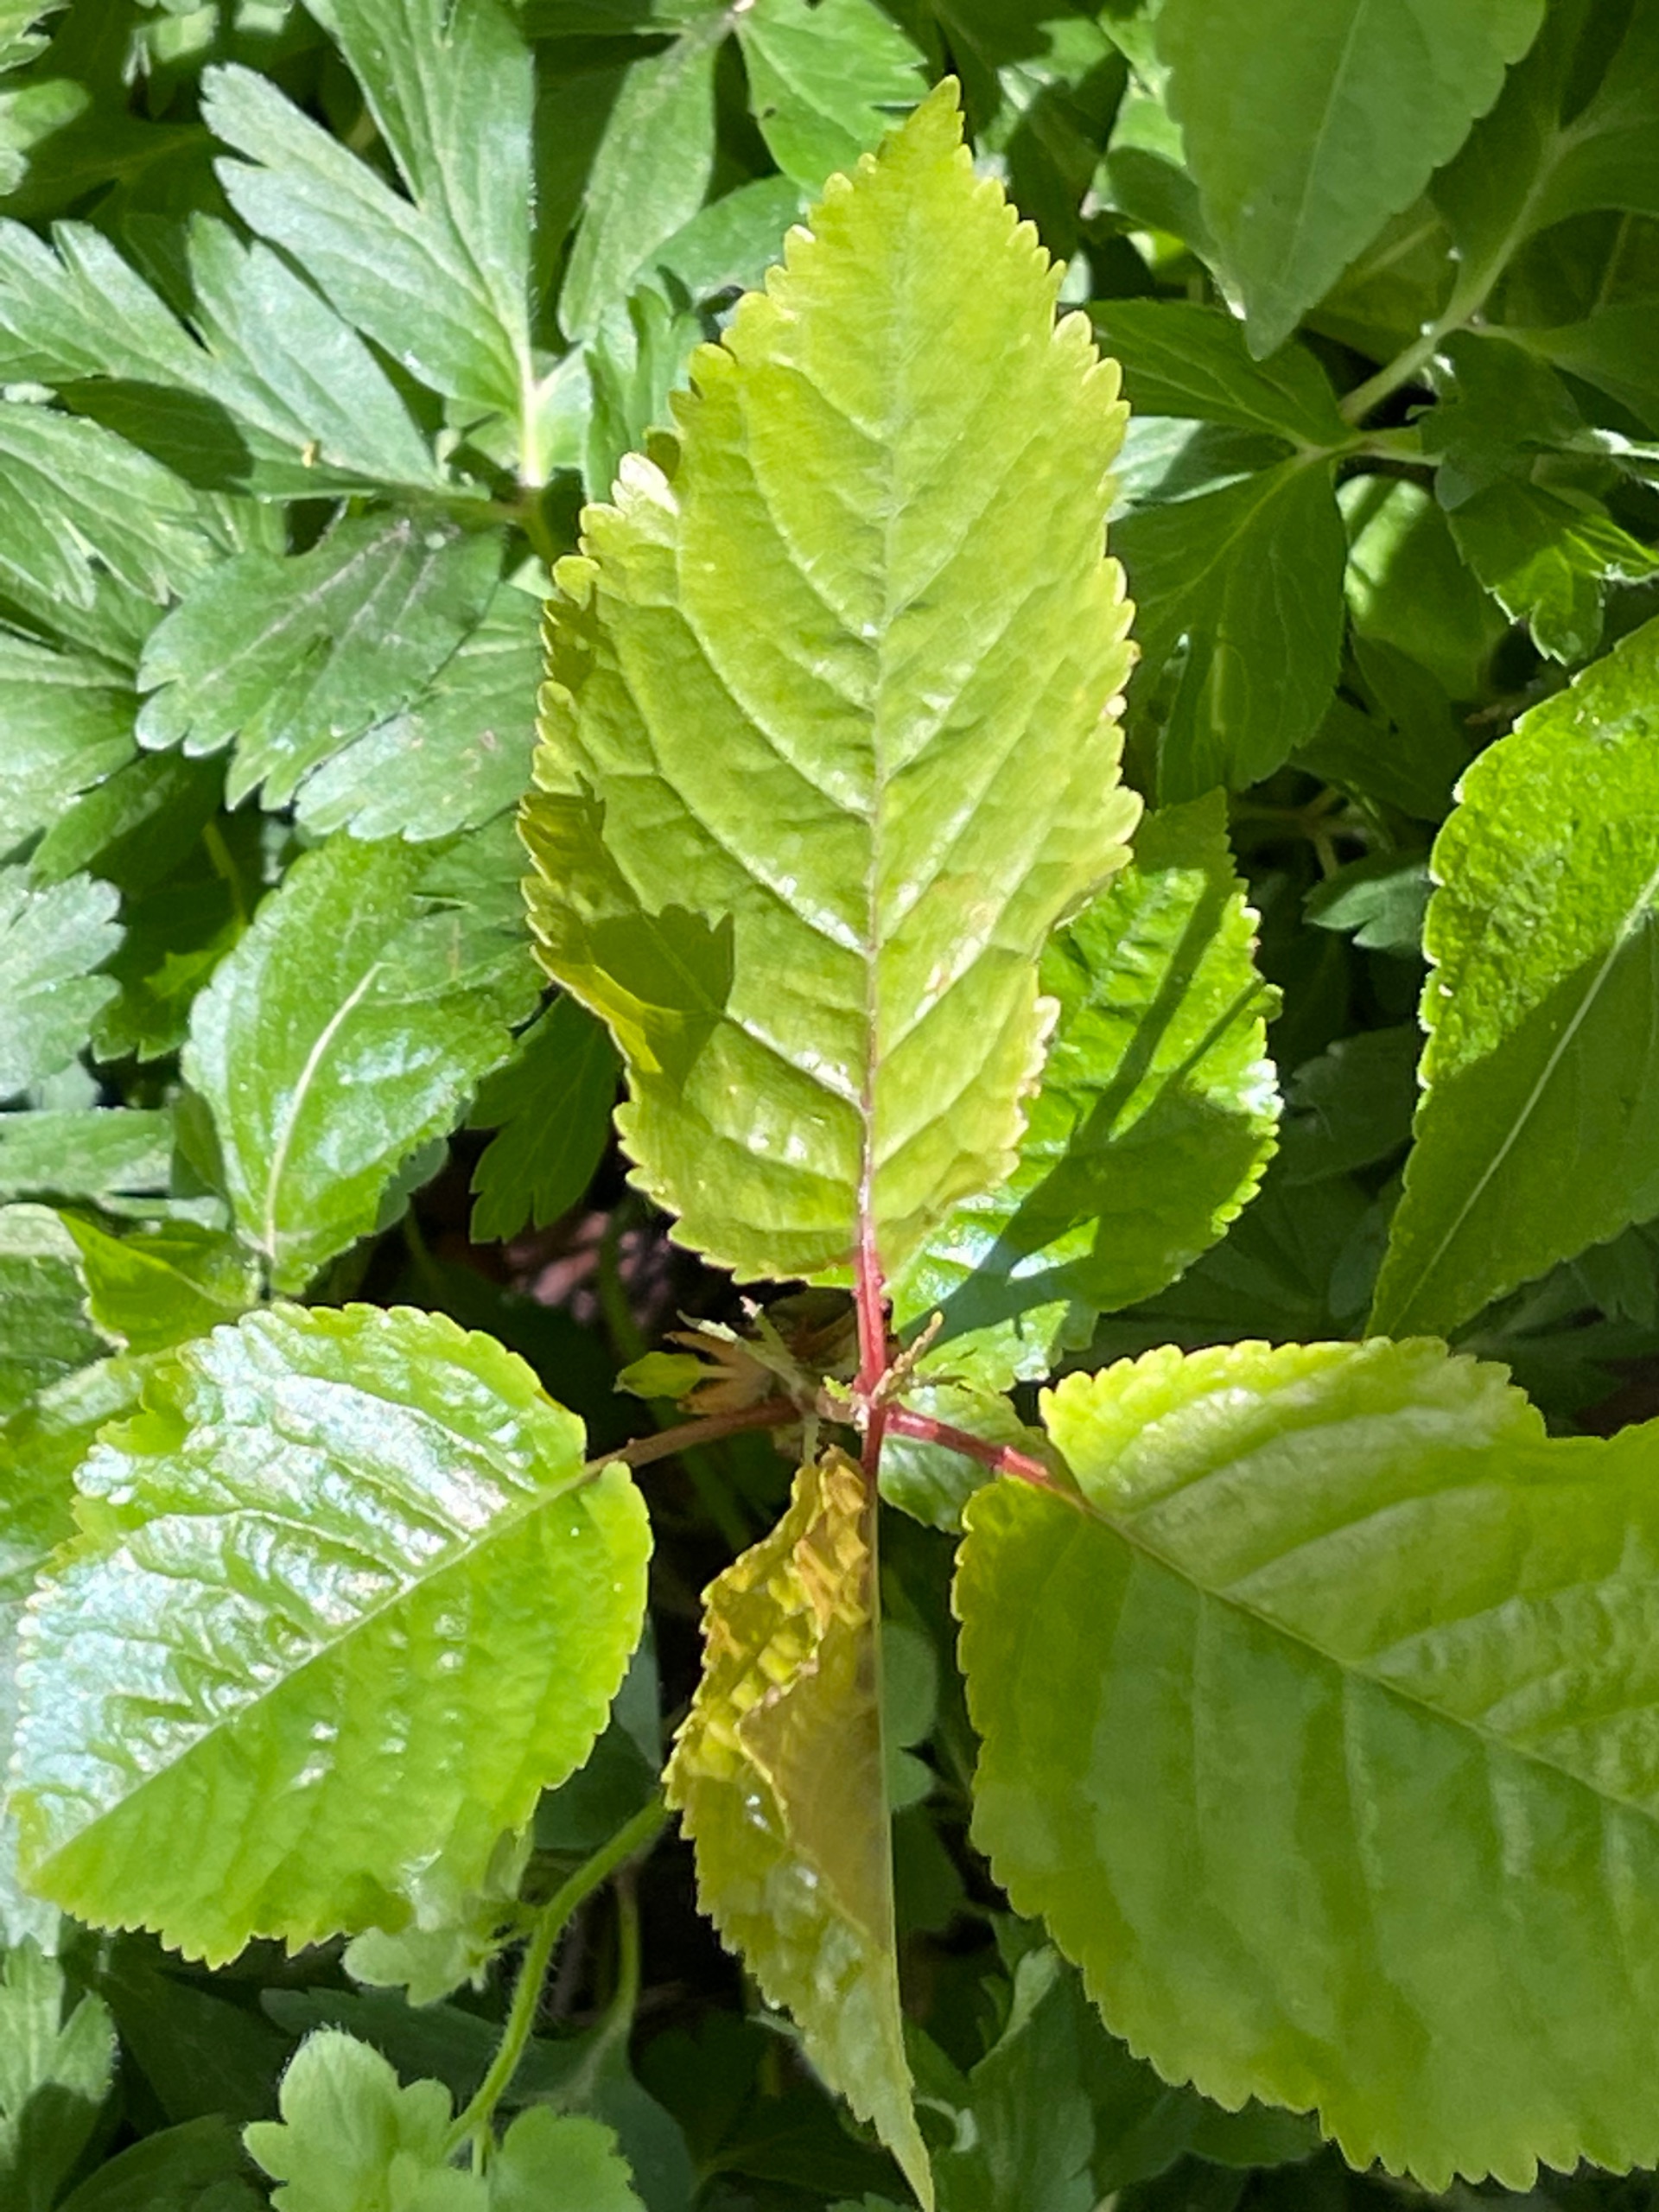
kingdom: Plantae
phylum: Tracheophyta
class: Magnoliopsida
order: Rosales
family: Rosaceae
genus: Prunus
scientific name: Prunus avium
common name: Fugle-kirsebær
